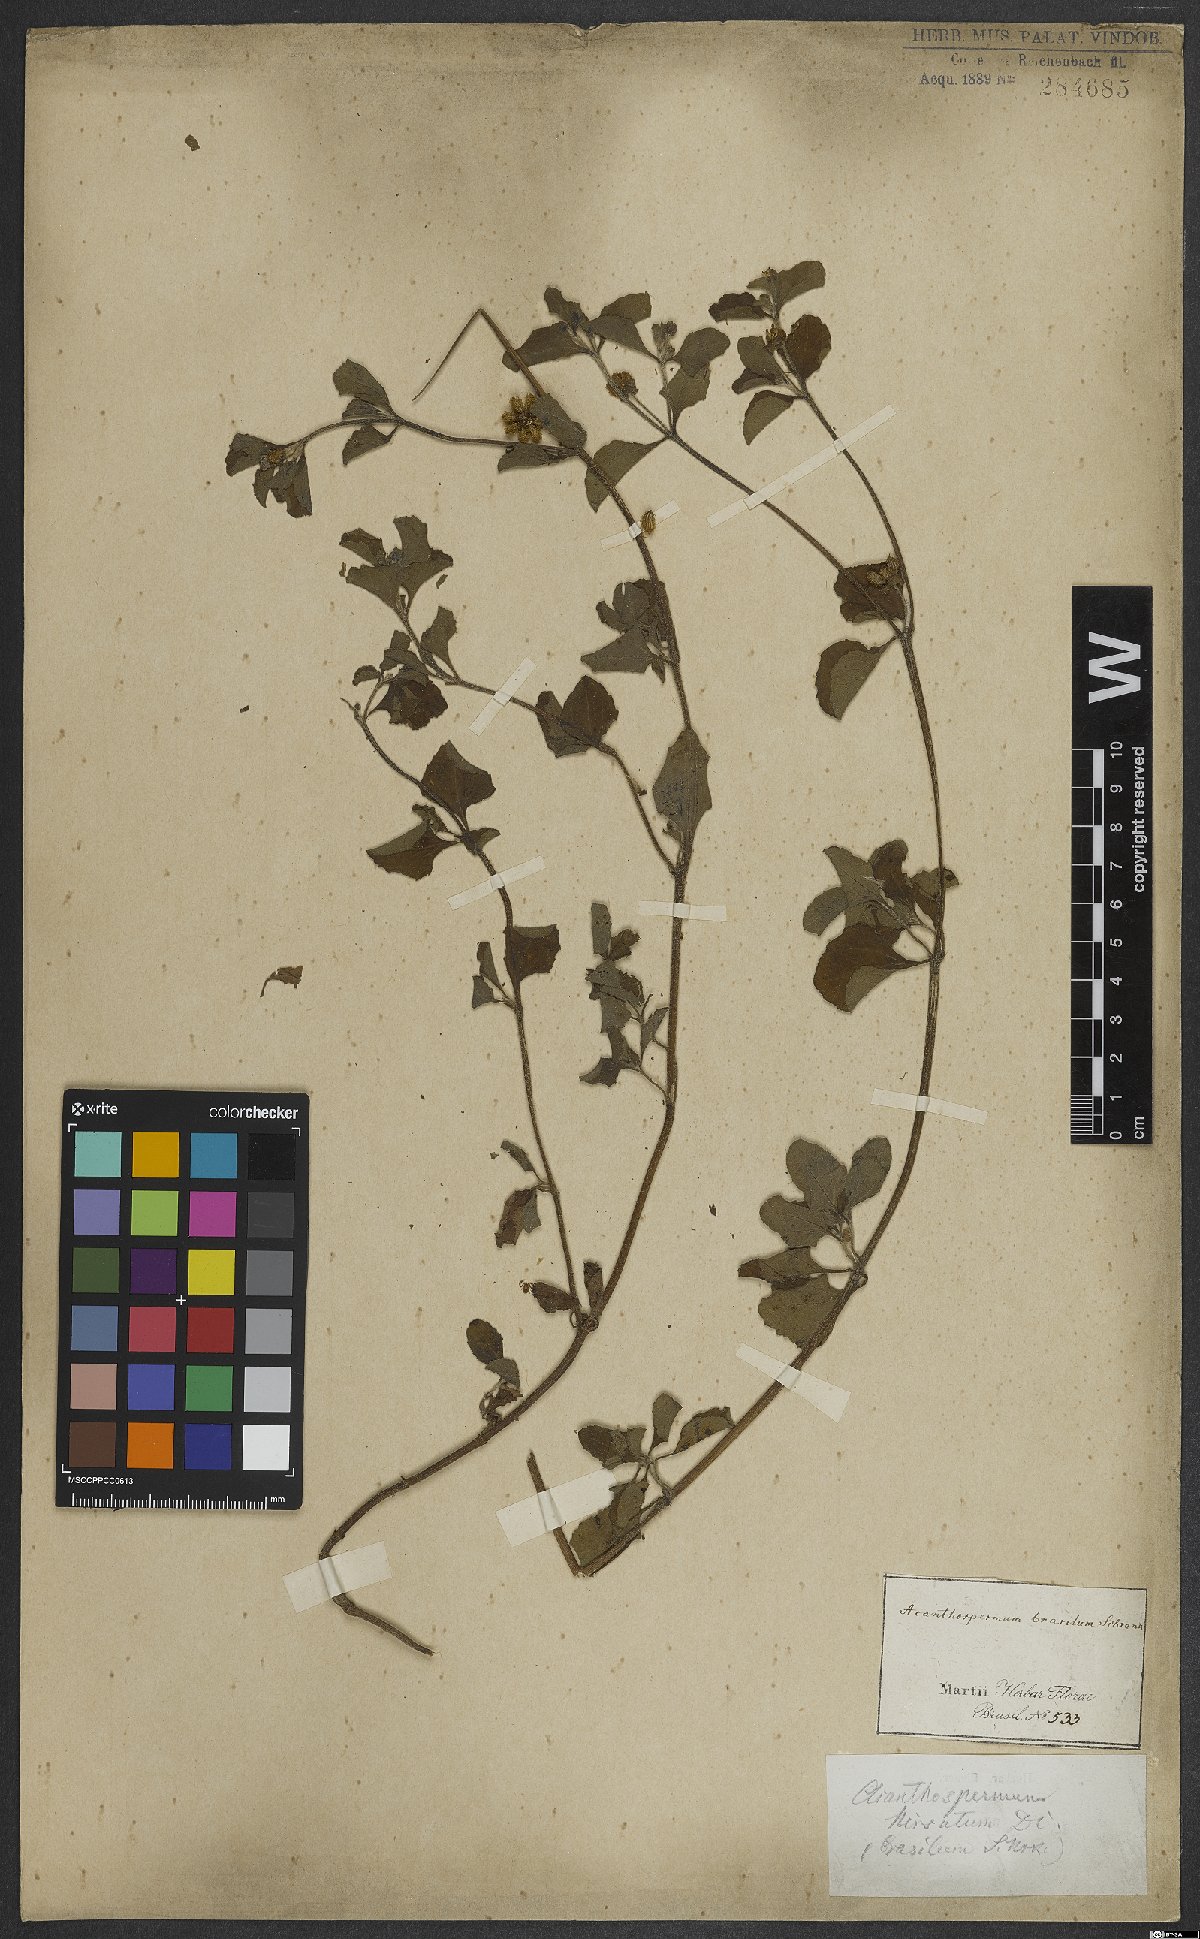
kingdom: Plantae
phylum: Tracheophyta
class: Magnoliopsida
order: Asterales
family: Asteraceae
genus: Acanthospermum
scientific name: Acanthospermum australe
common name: Paraguayan starbur
